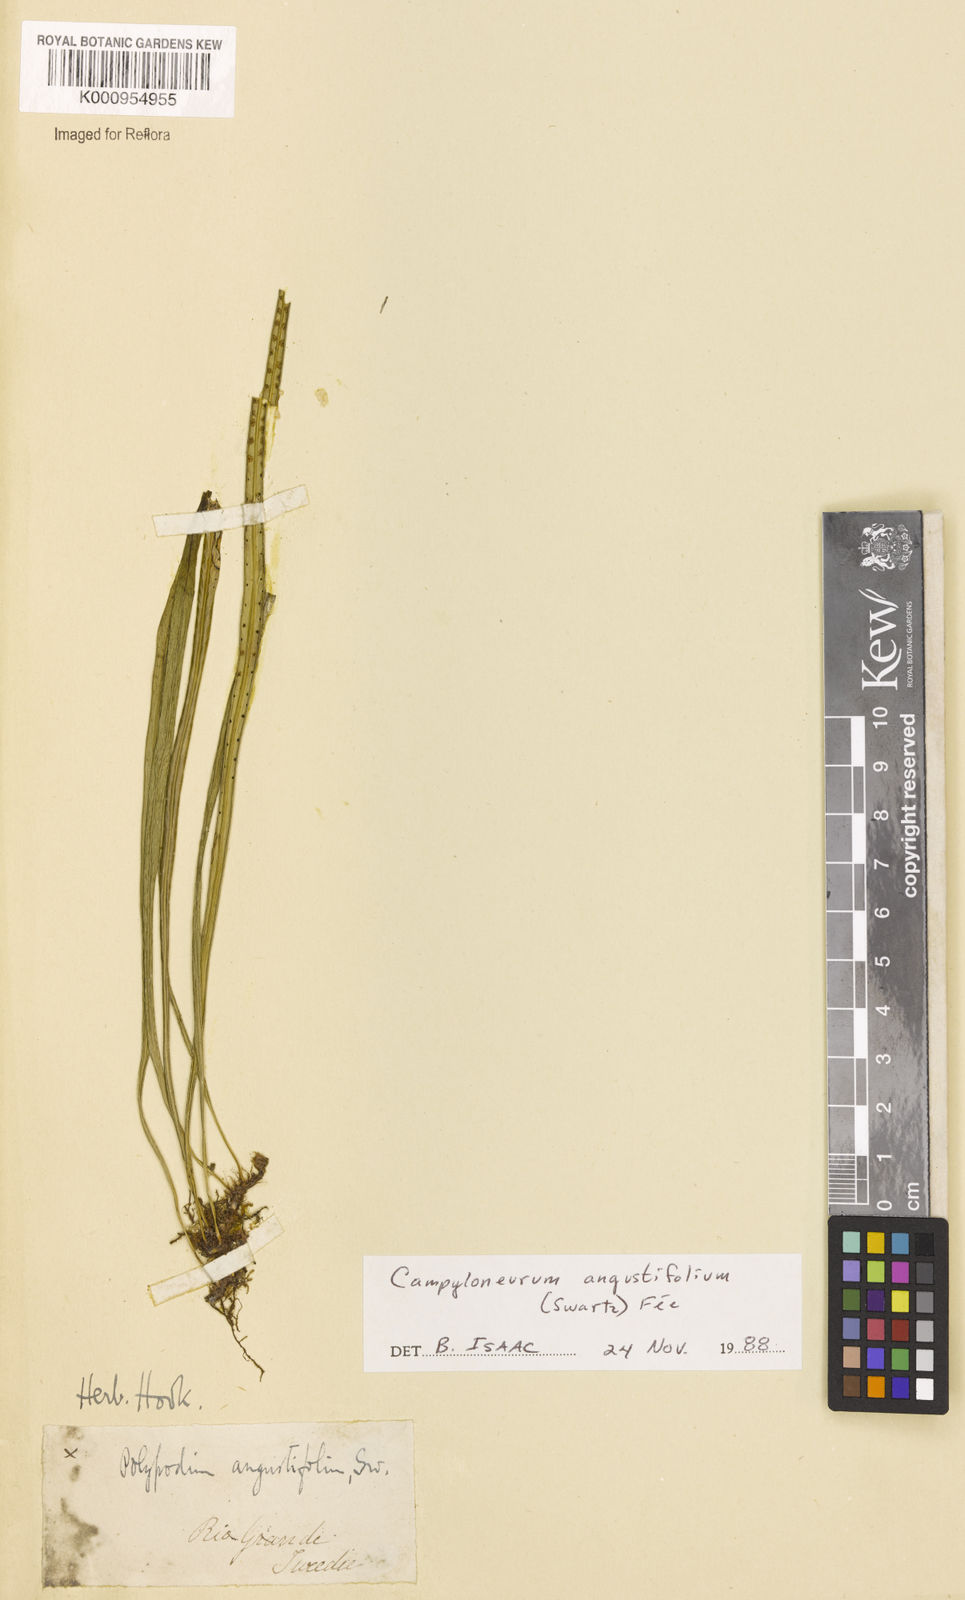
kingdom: Plantae
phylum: Tracheophyta
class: Polypodiopsida
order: Polypodiales
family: Polypodiaceae
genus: Campyloneurum
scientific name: Campyloneurum
